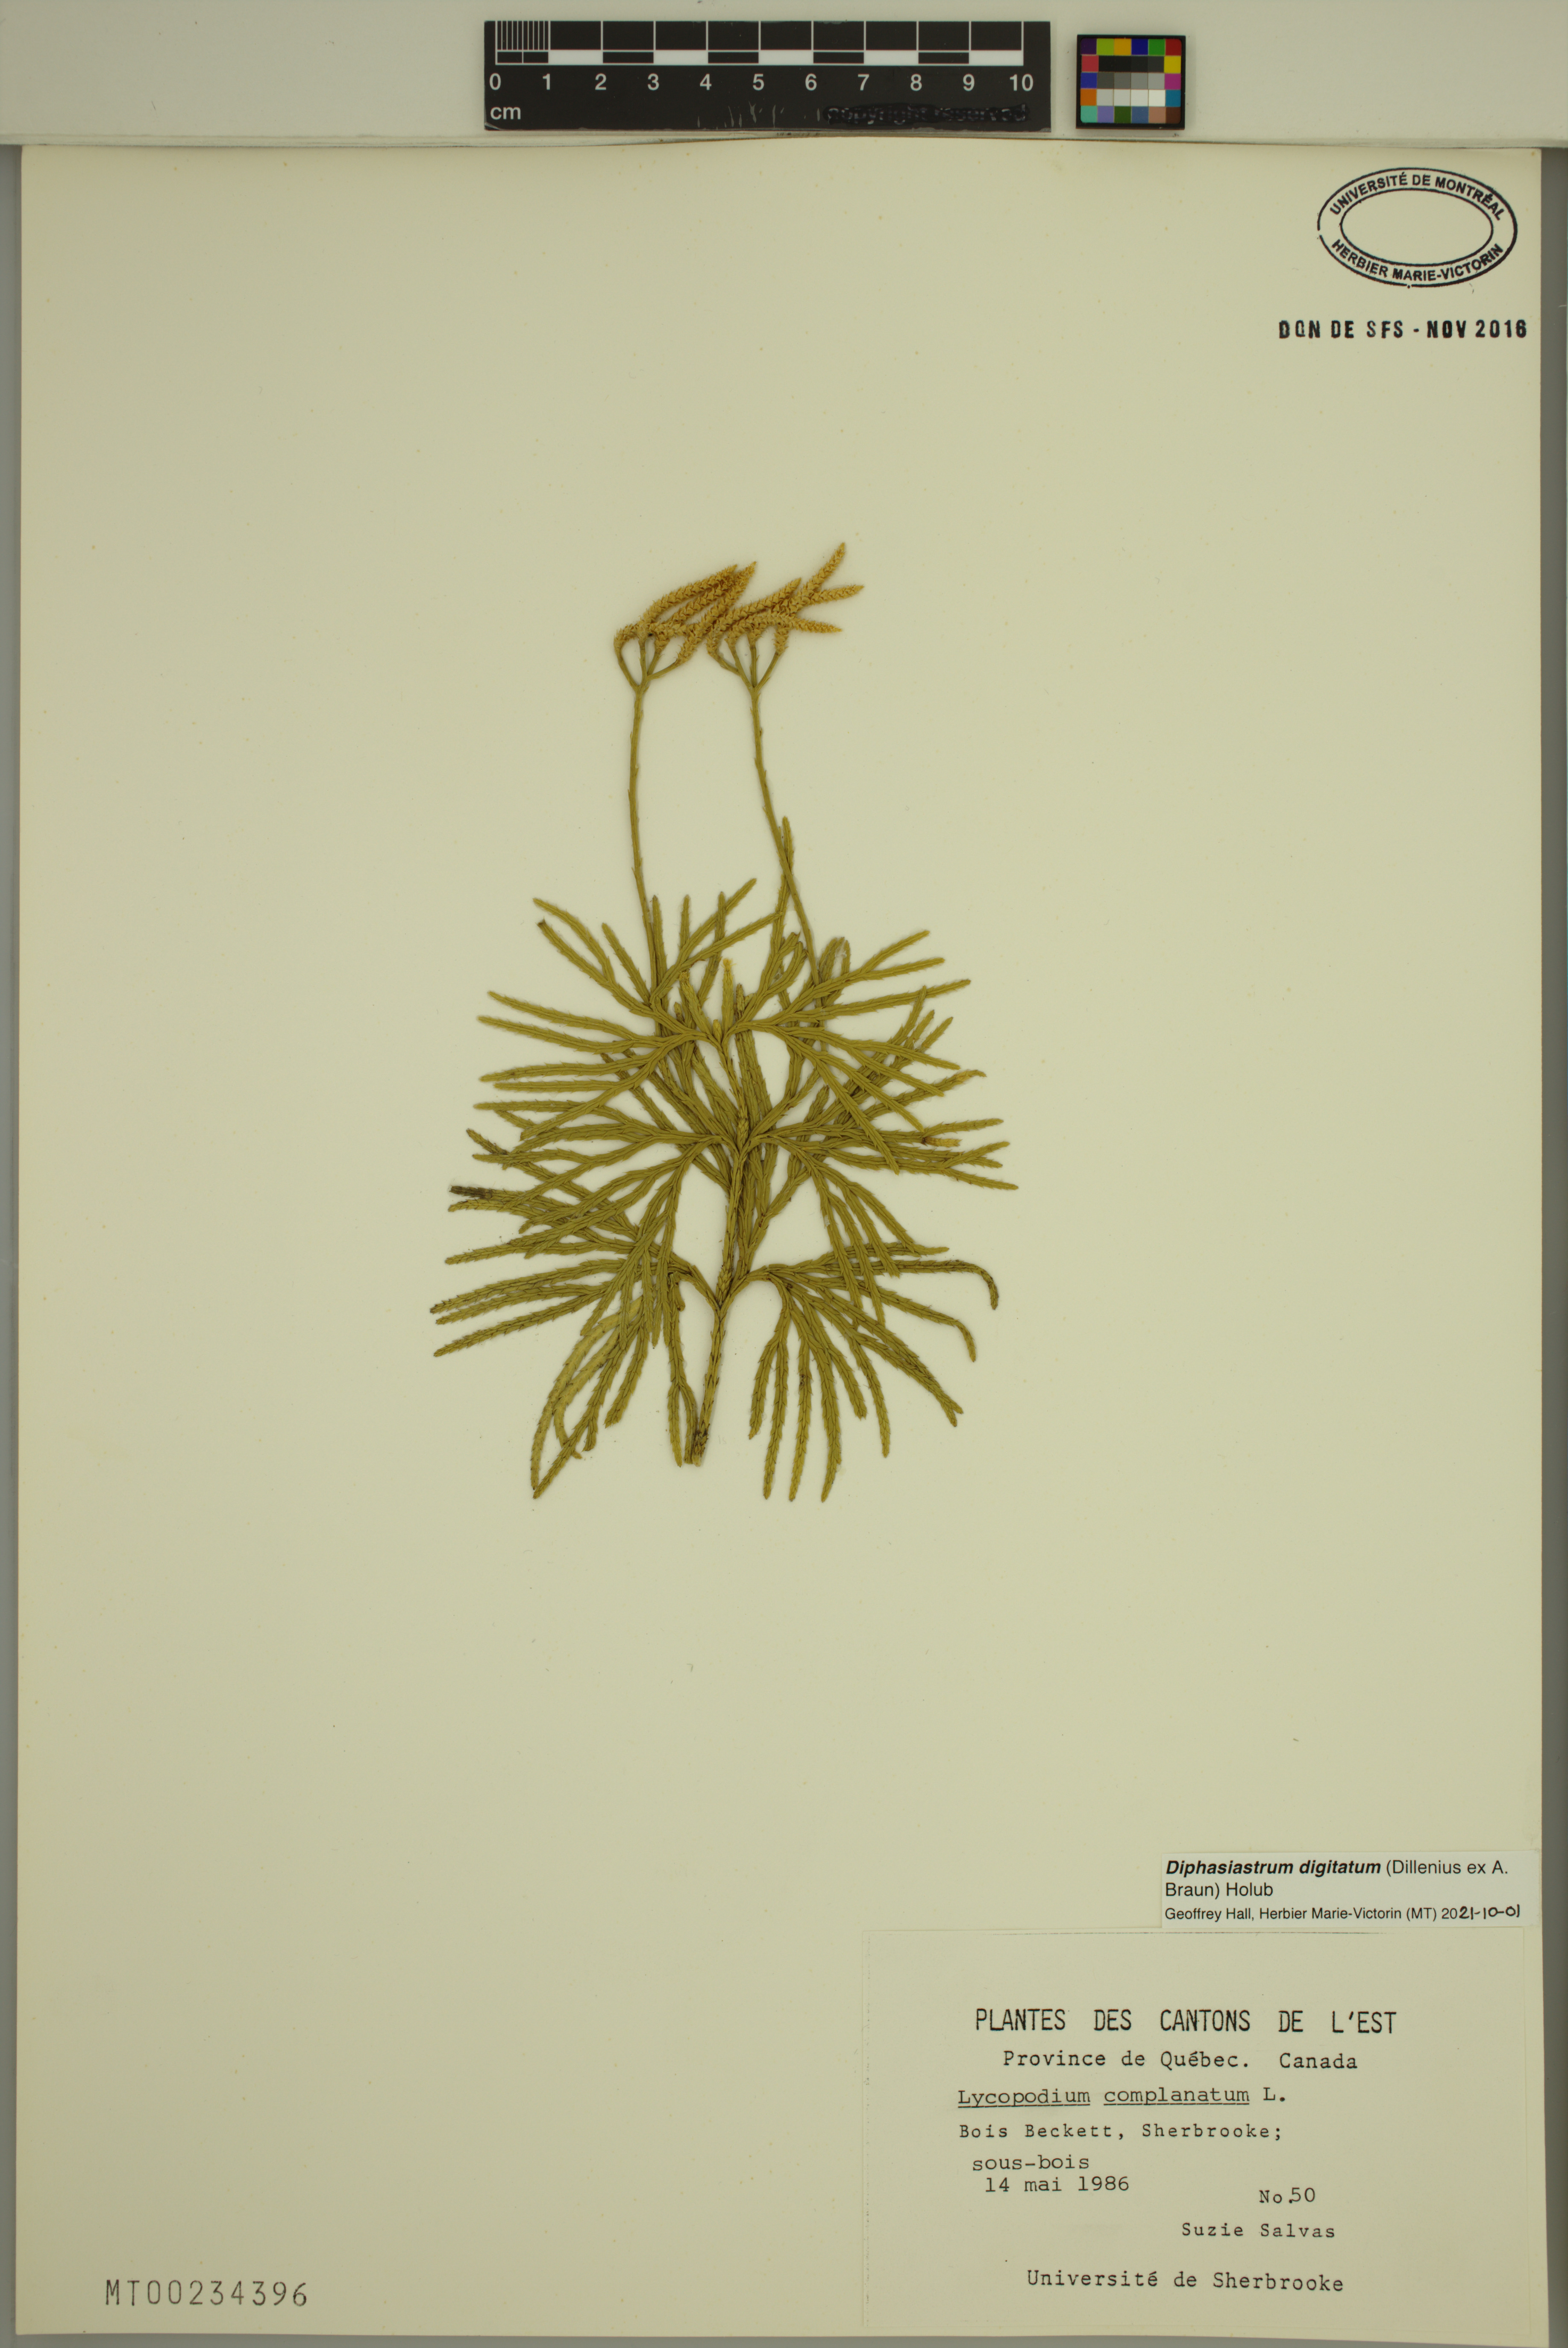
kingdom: Plantae
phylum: Tracheophyta
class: Lycopodiopsida
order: Lycopodiales
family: Lycopodiaceae
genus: Diphasiastrum
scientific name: Diphasiastrum digitatum
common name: Southern running-pine
